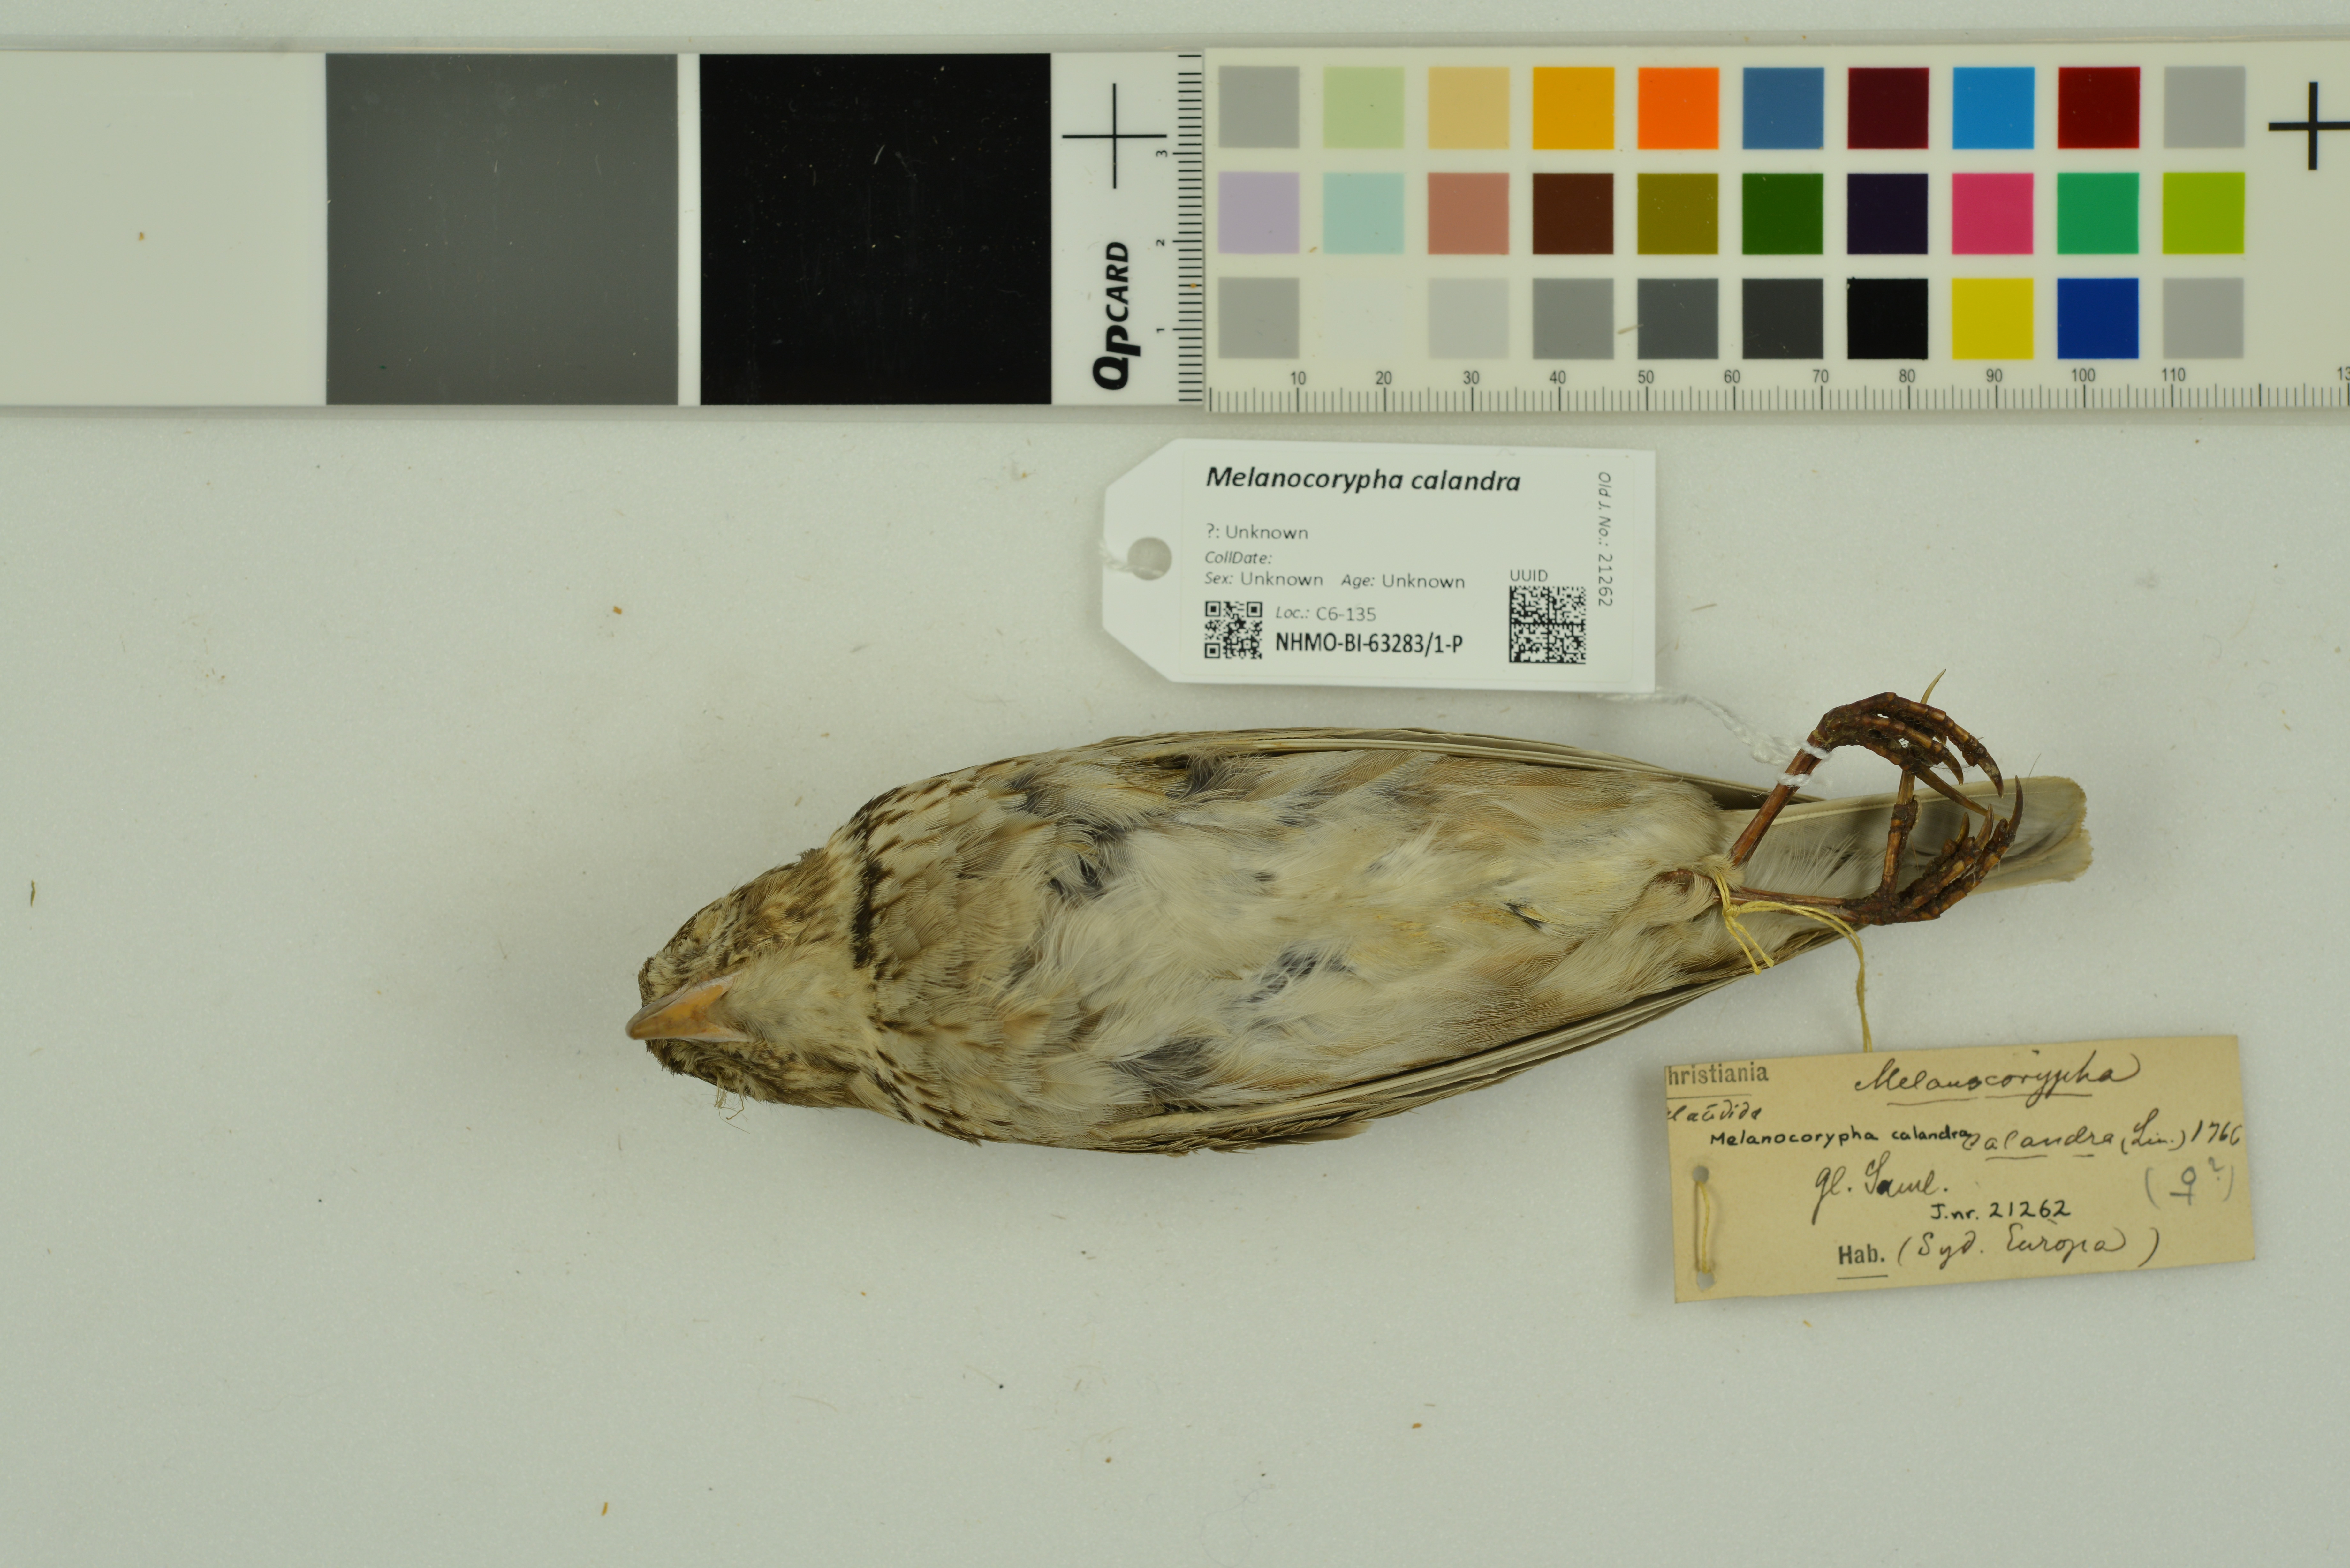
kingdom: Animalia
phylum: Chordata
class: Aves
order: Passeriformes
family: Alaudidae
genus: Melanocorypha
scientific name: Melanocorypha calandra
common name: Calandra lark
